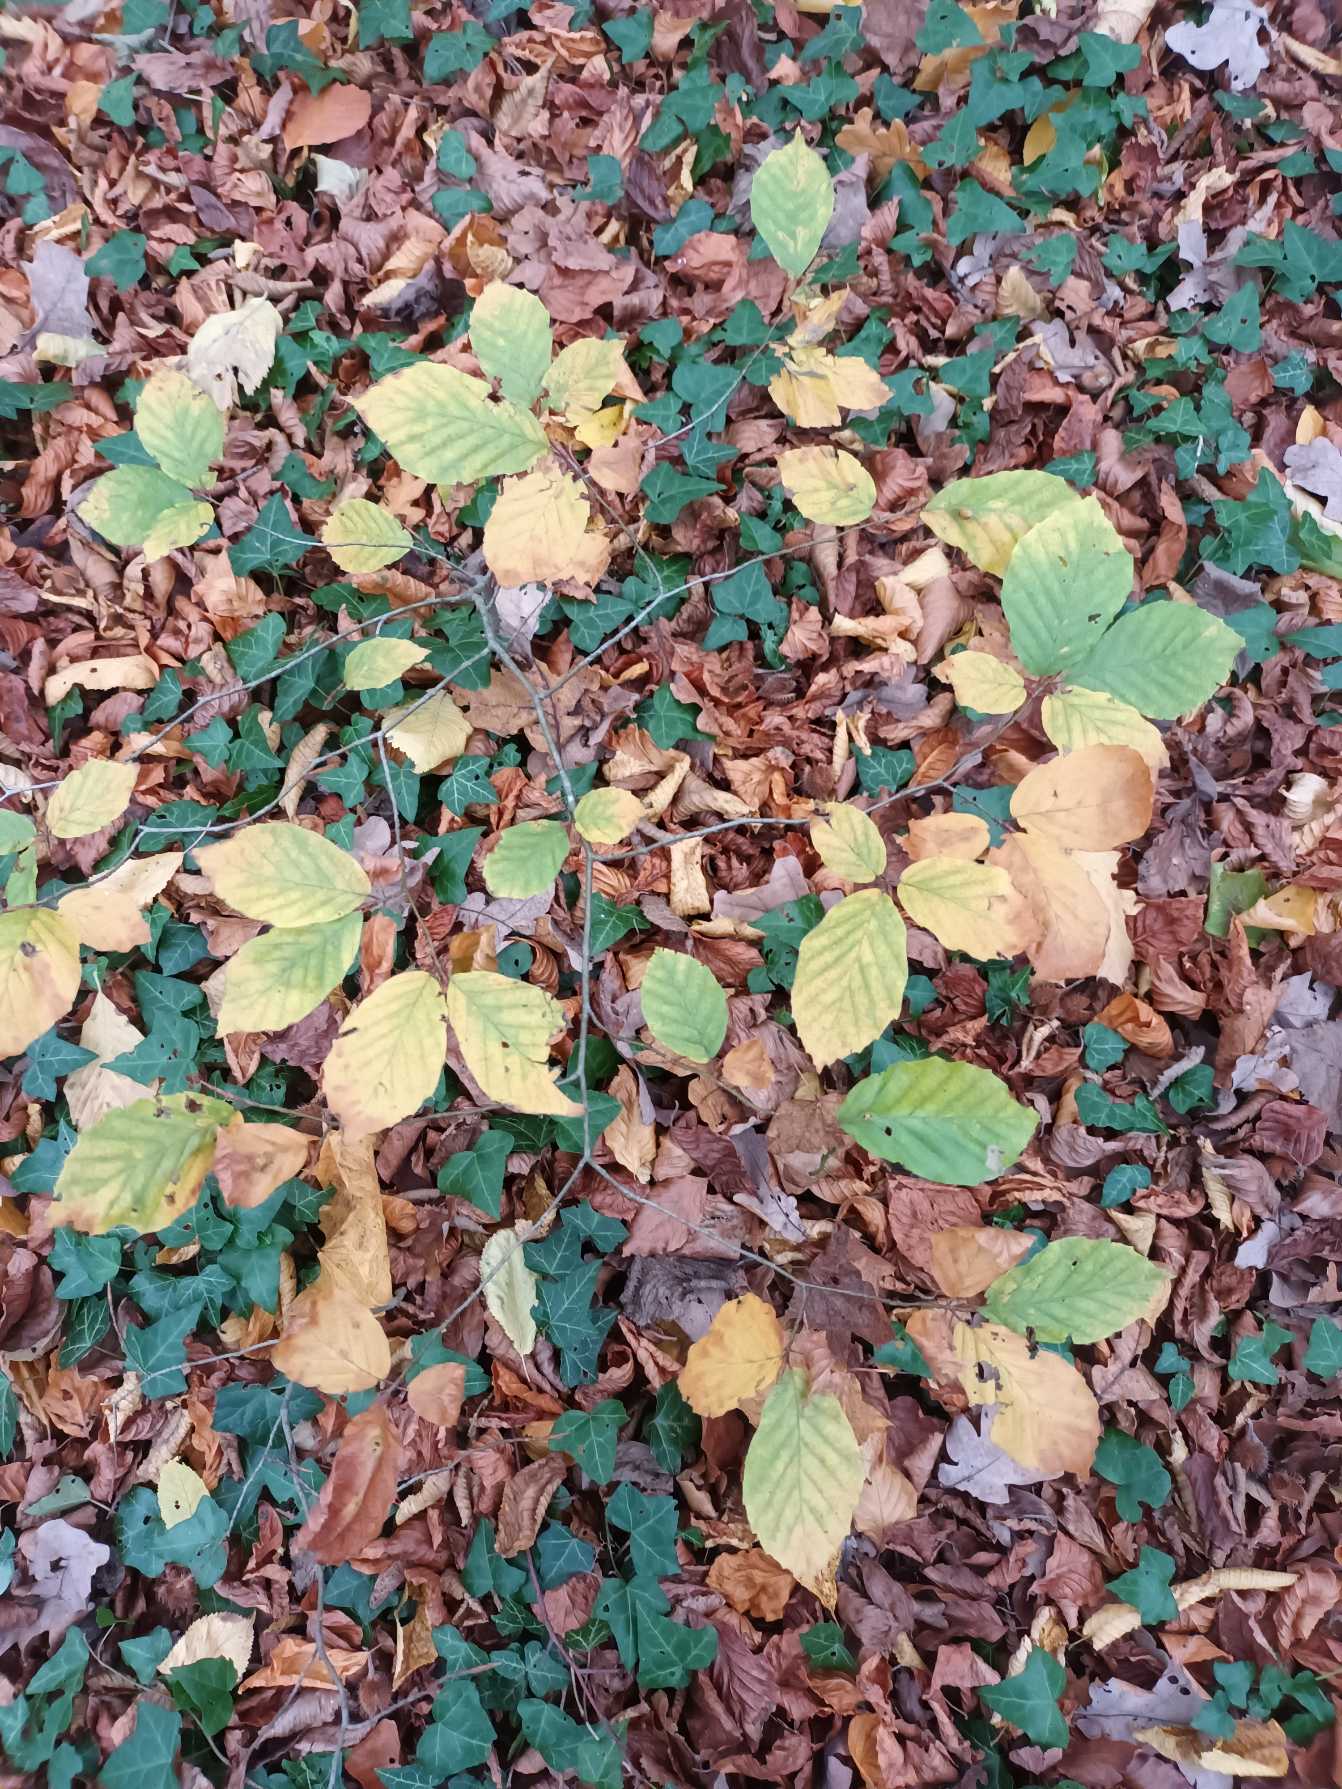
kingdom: Plantae
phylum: Tracheophyta
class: Magnoliopsida
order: Fagales
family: Fagaceae
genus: Fagus
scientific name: Fagus sylvatica
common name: Bøg
